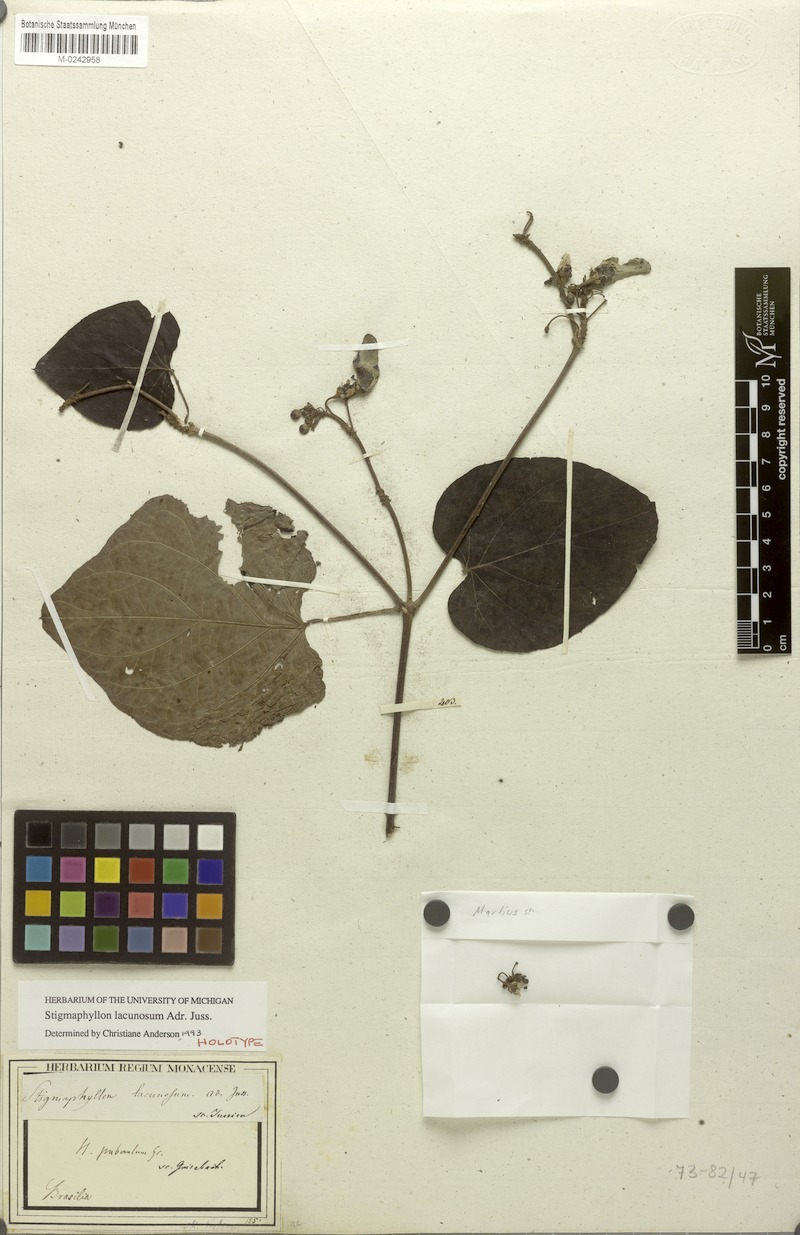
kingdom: Plantae
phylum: Tracheophyta
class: Magnoliopsida
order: Malpighiales
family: Malpighiaceae
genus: Stigmaphyllon
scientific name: Stigmaphyllon lacunosum
